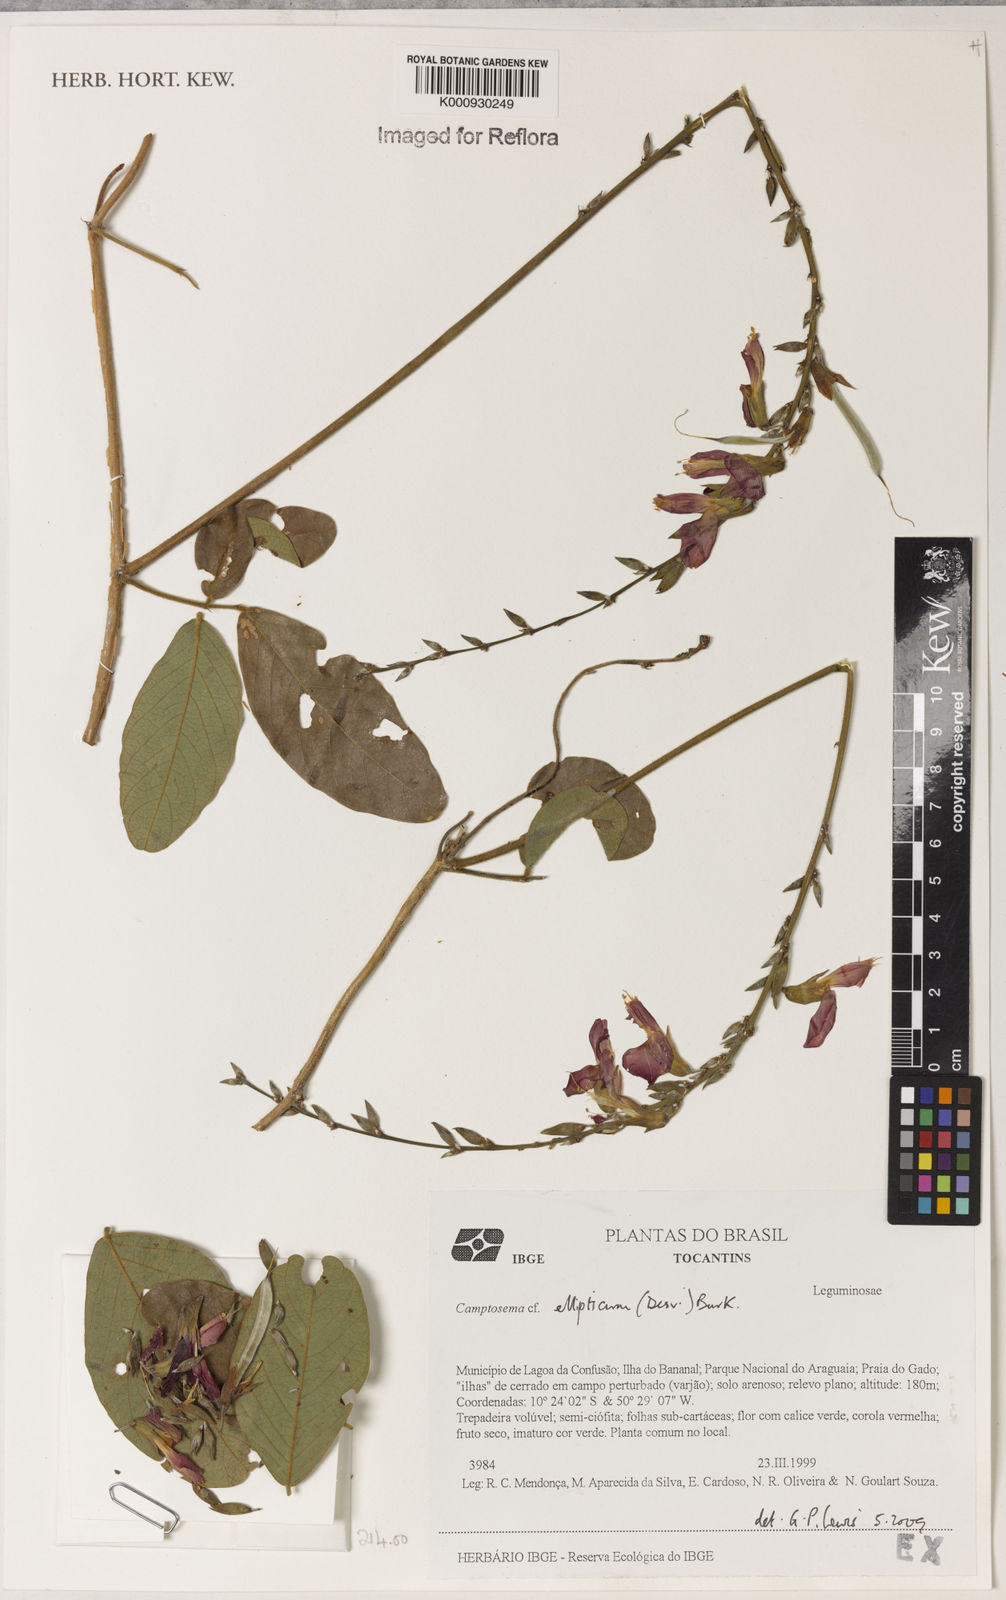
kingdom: Plantae
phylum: Tracheophyta
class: Magnoliopsida
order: Fabales
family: Fabaceae
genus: Camptosema
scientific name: Camptosema
